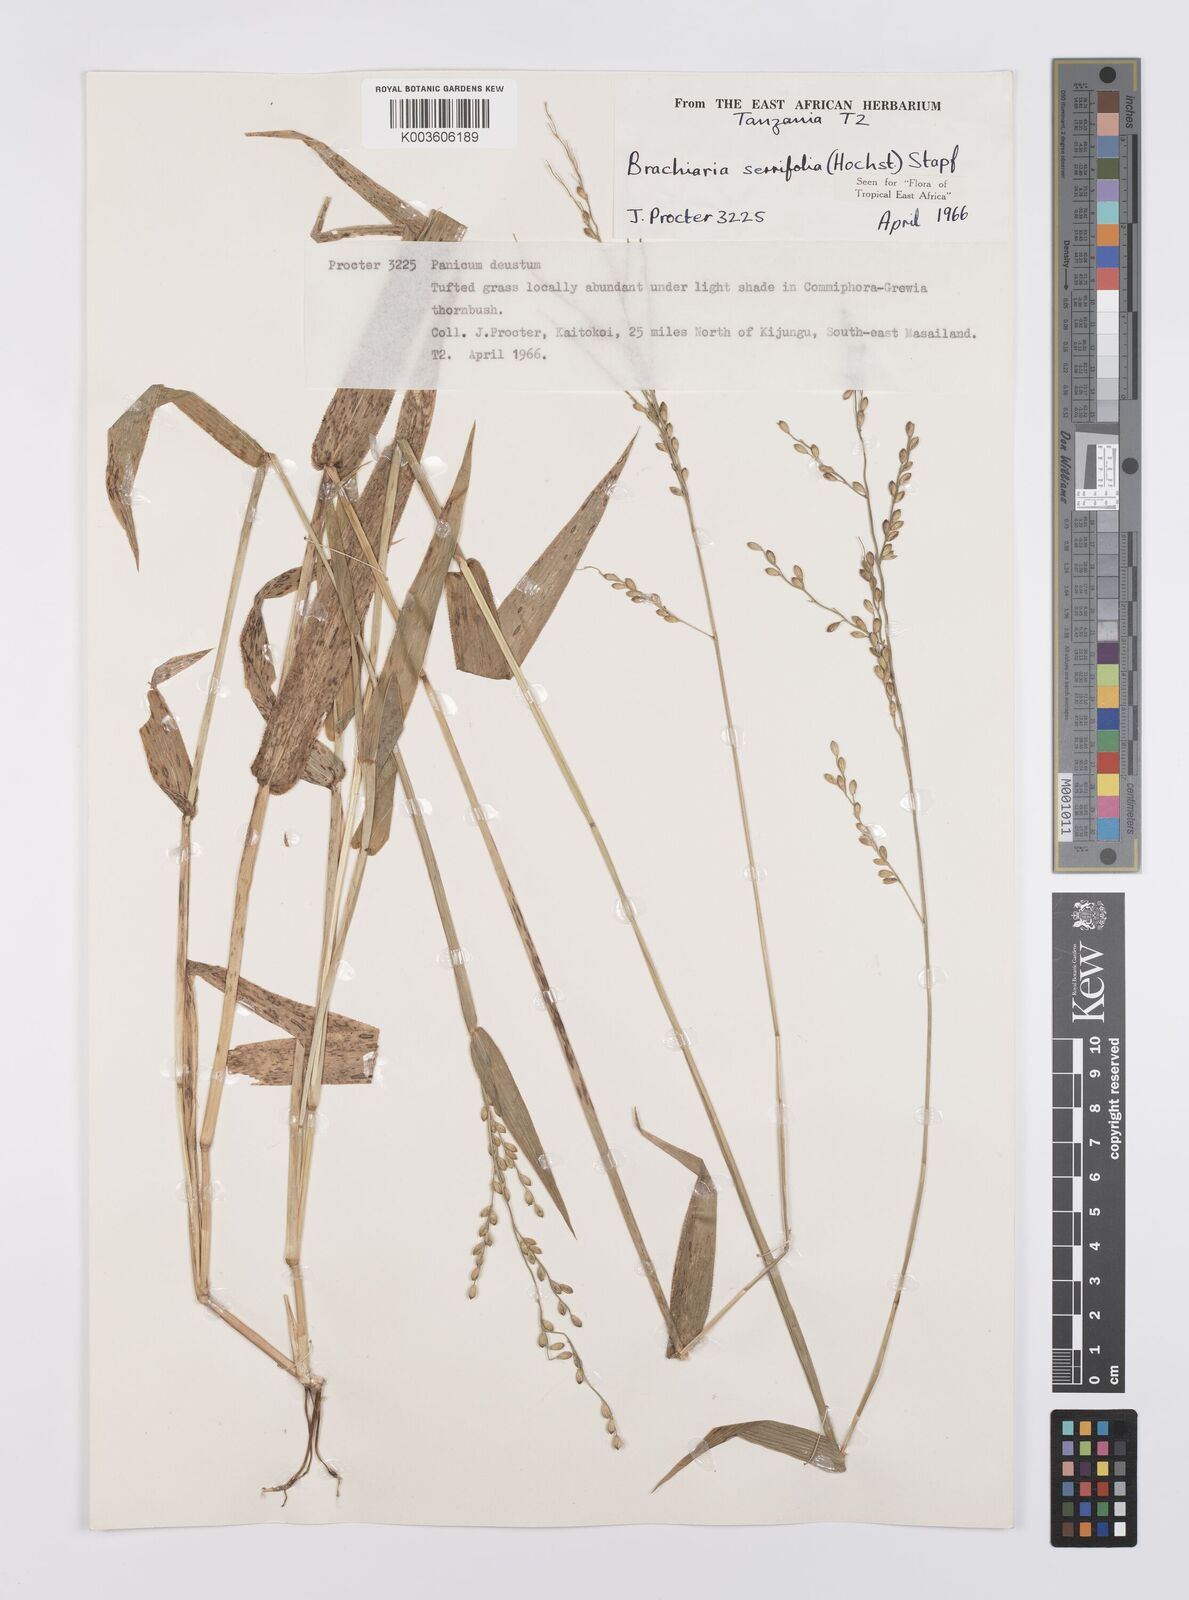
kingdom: Plantae
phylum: Tracheophyta
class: Liliopsida
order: Poales
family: Poaceae
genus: Urochloa
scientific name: Urochloa serrifolia
